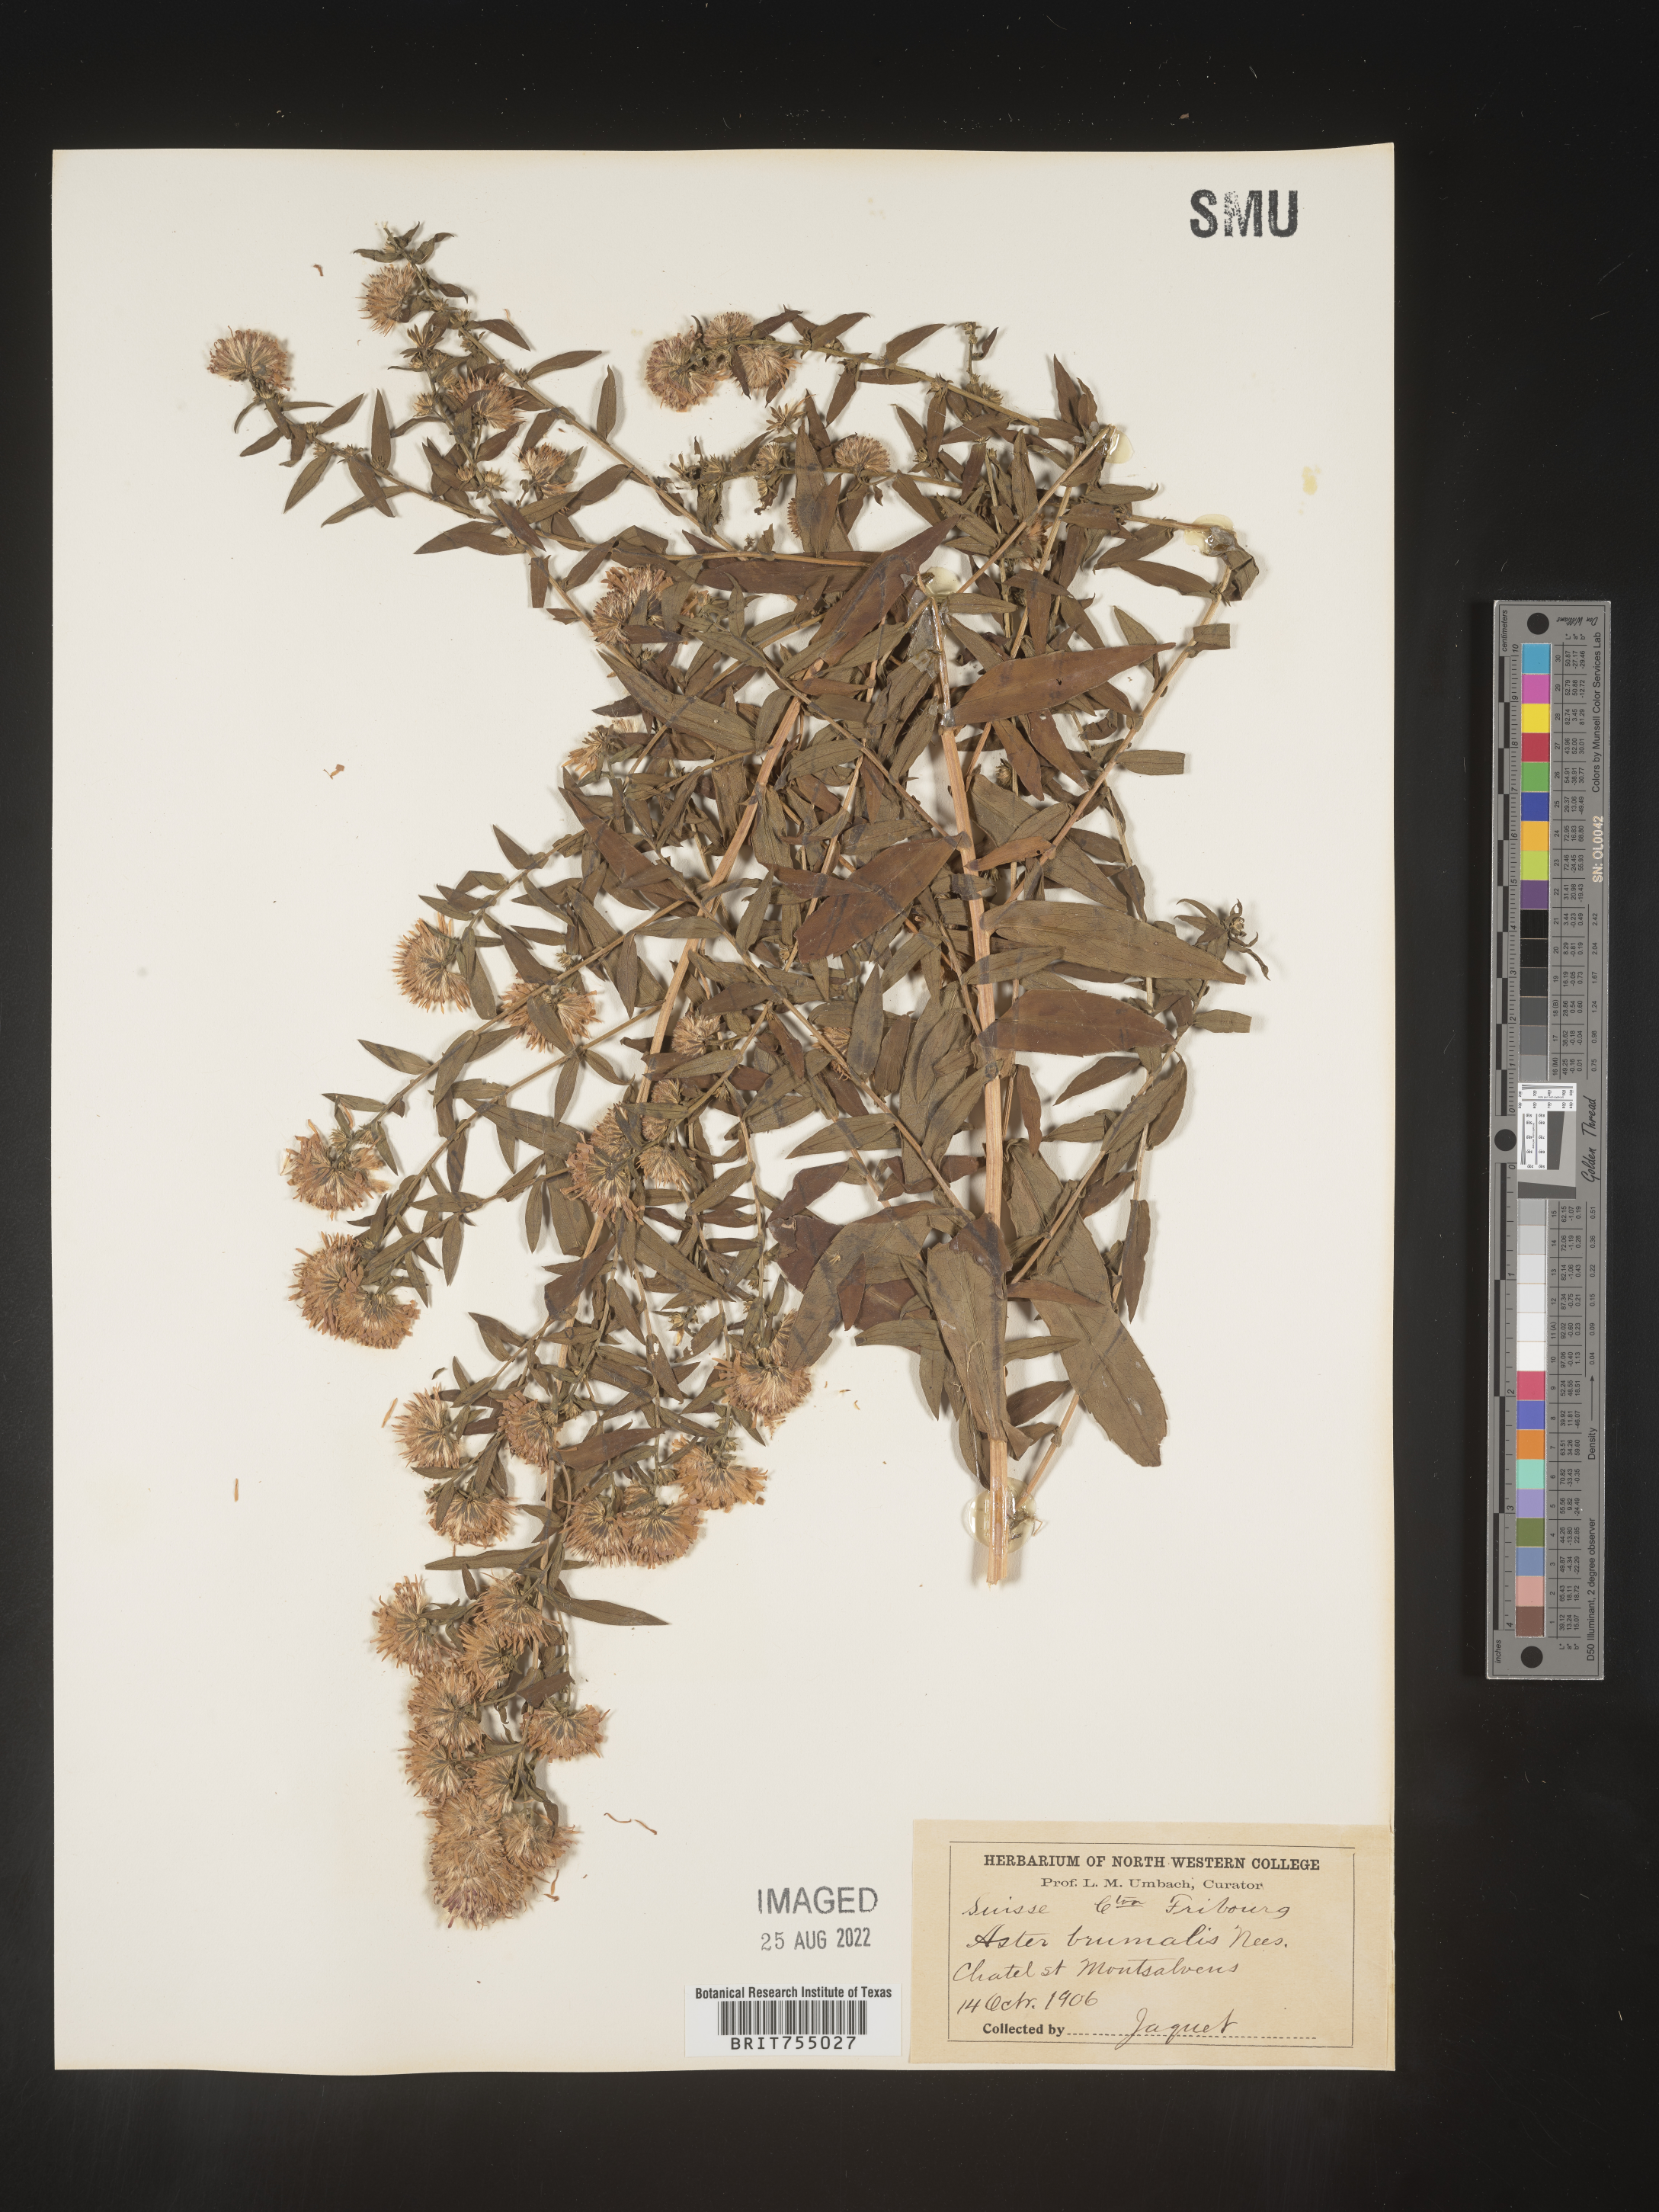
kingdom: Plantae
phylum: Tracheophyta
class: Magnoliopsida
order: Asterales
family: Asteraceae
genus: Symphyotrichum
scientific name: Symphyotrichum
